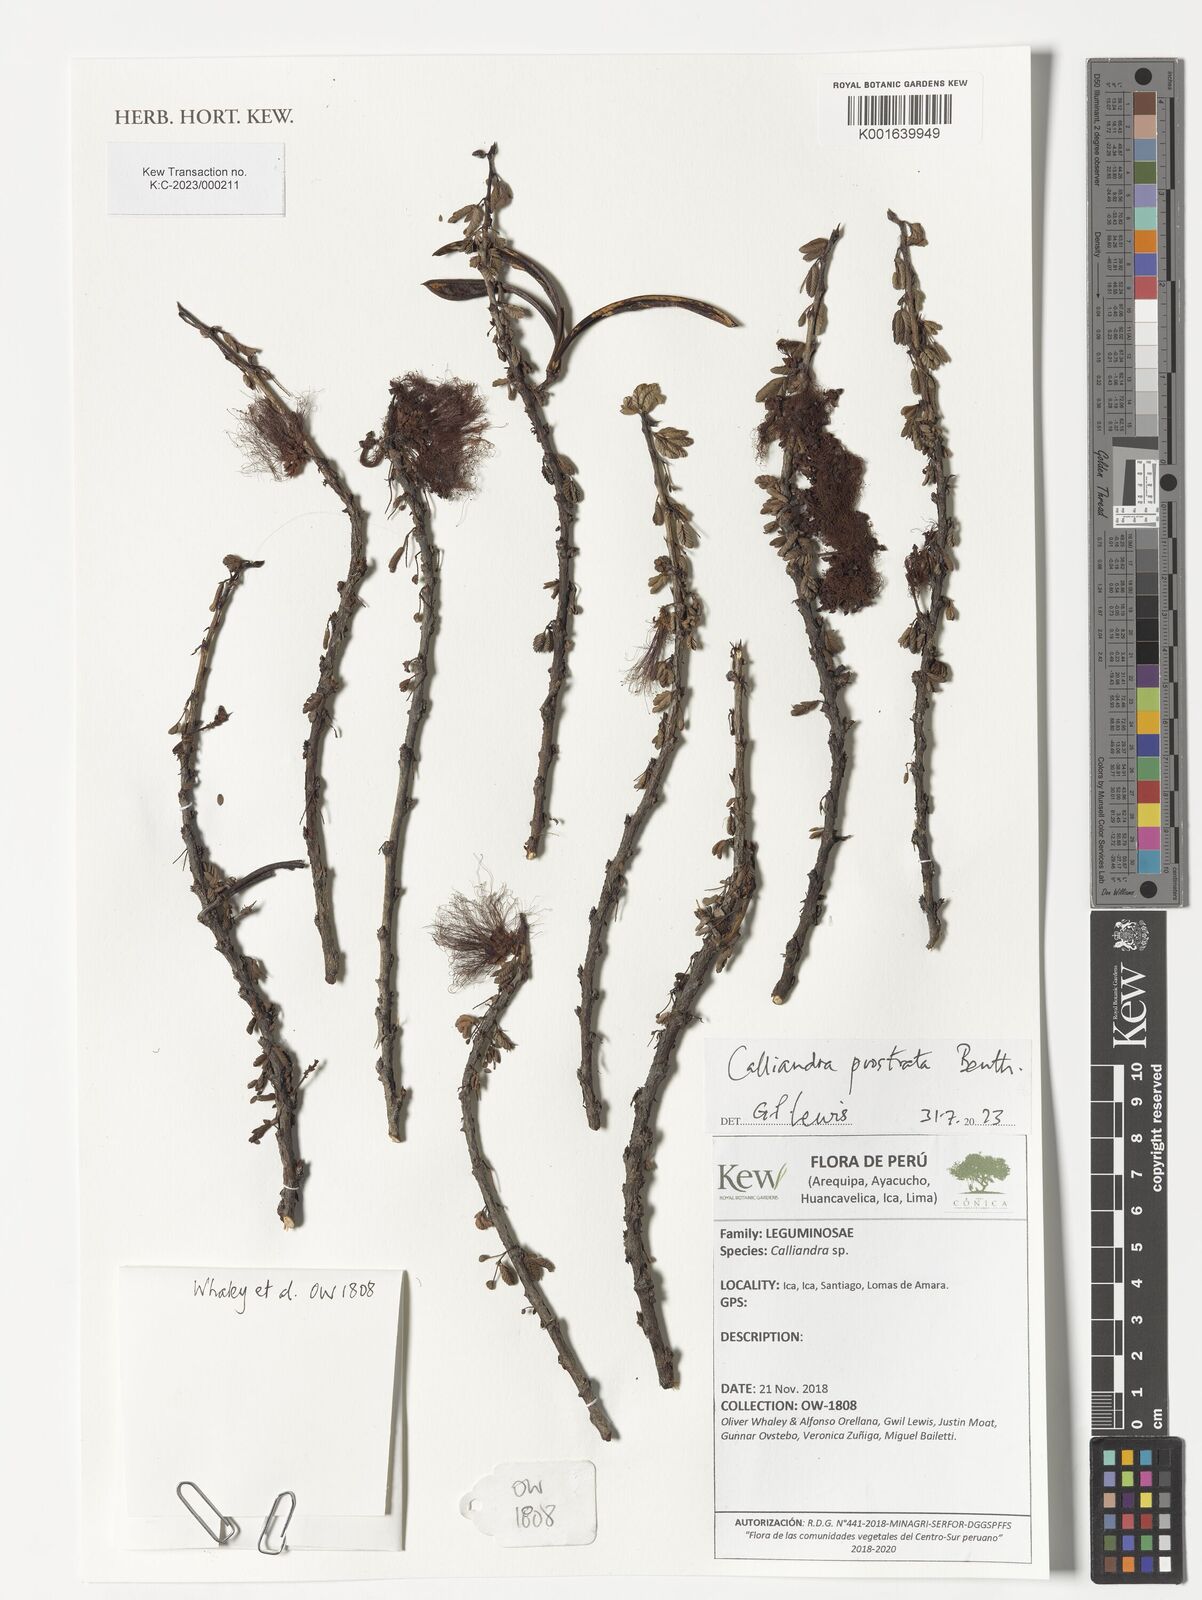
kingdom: Plantae
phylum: Tracheophyta
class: Magnoliopsida
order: Fabales
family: Fabaceae
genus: Calliandra
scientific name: Calliandra taxifolia
